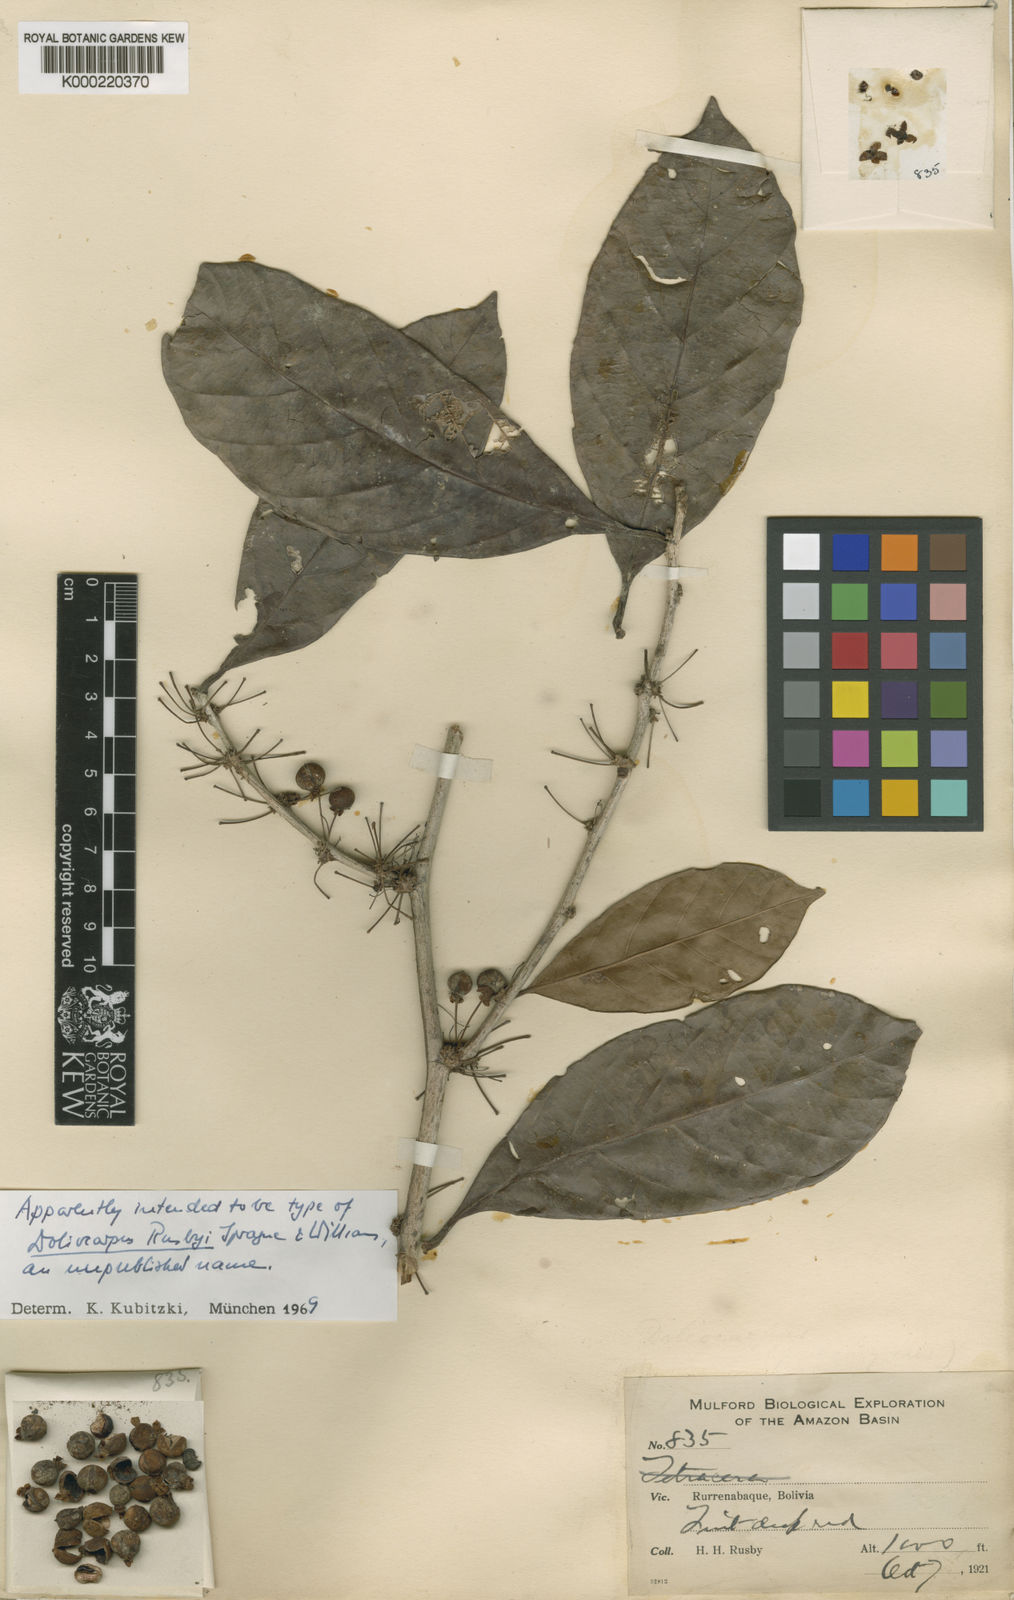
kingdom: Plantae
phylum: Tracheophyta
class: Magnoliopsida
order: Dilleniales
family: Dilleniaceae
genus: Doliocarpus
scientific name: Doliocarpus
